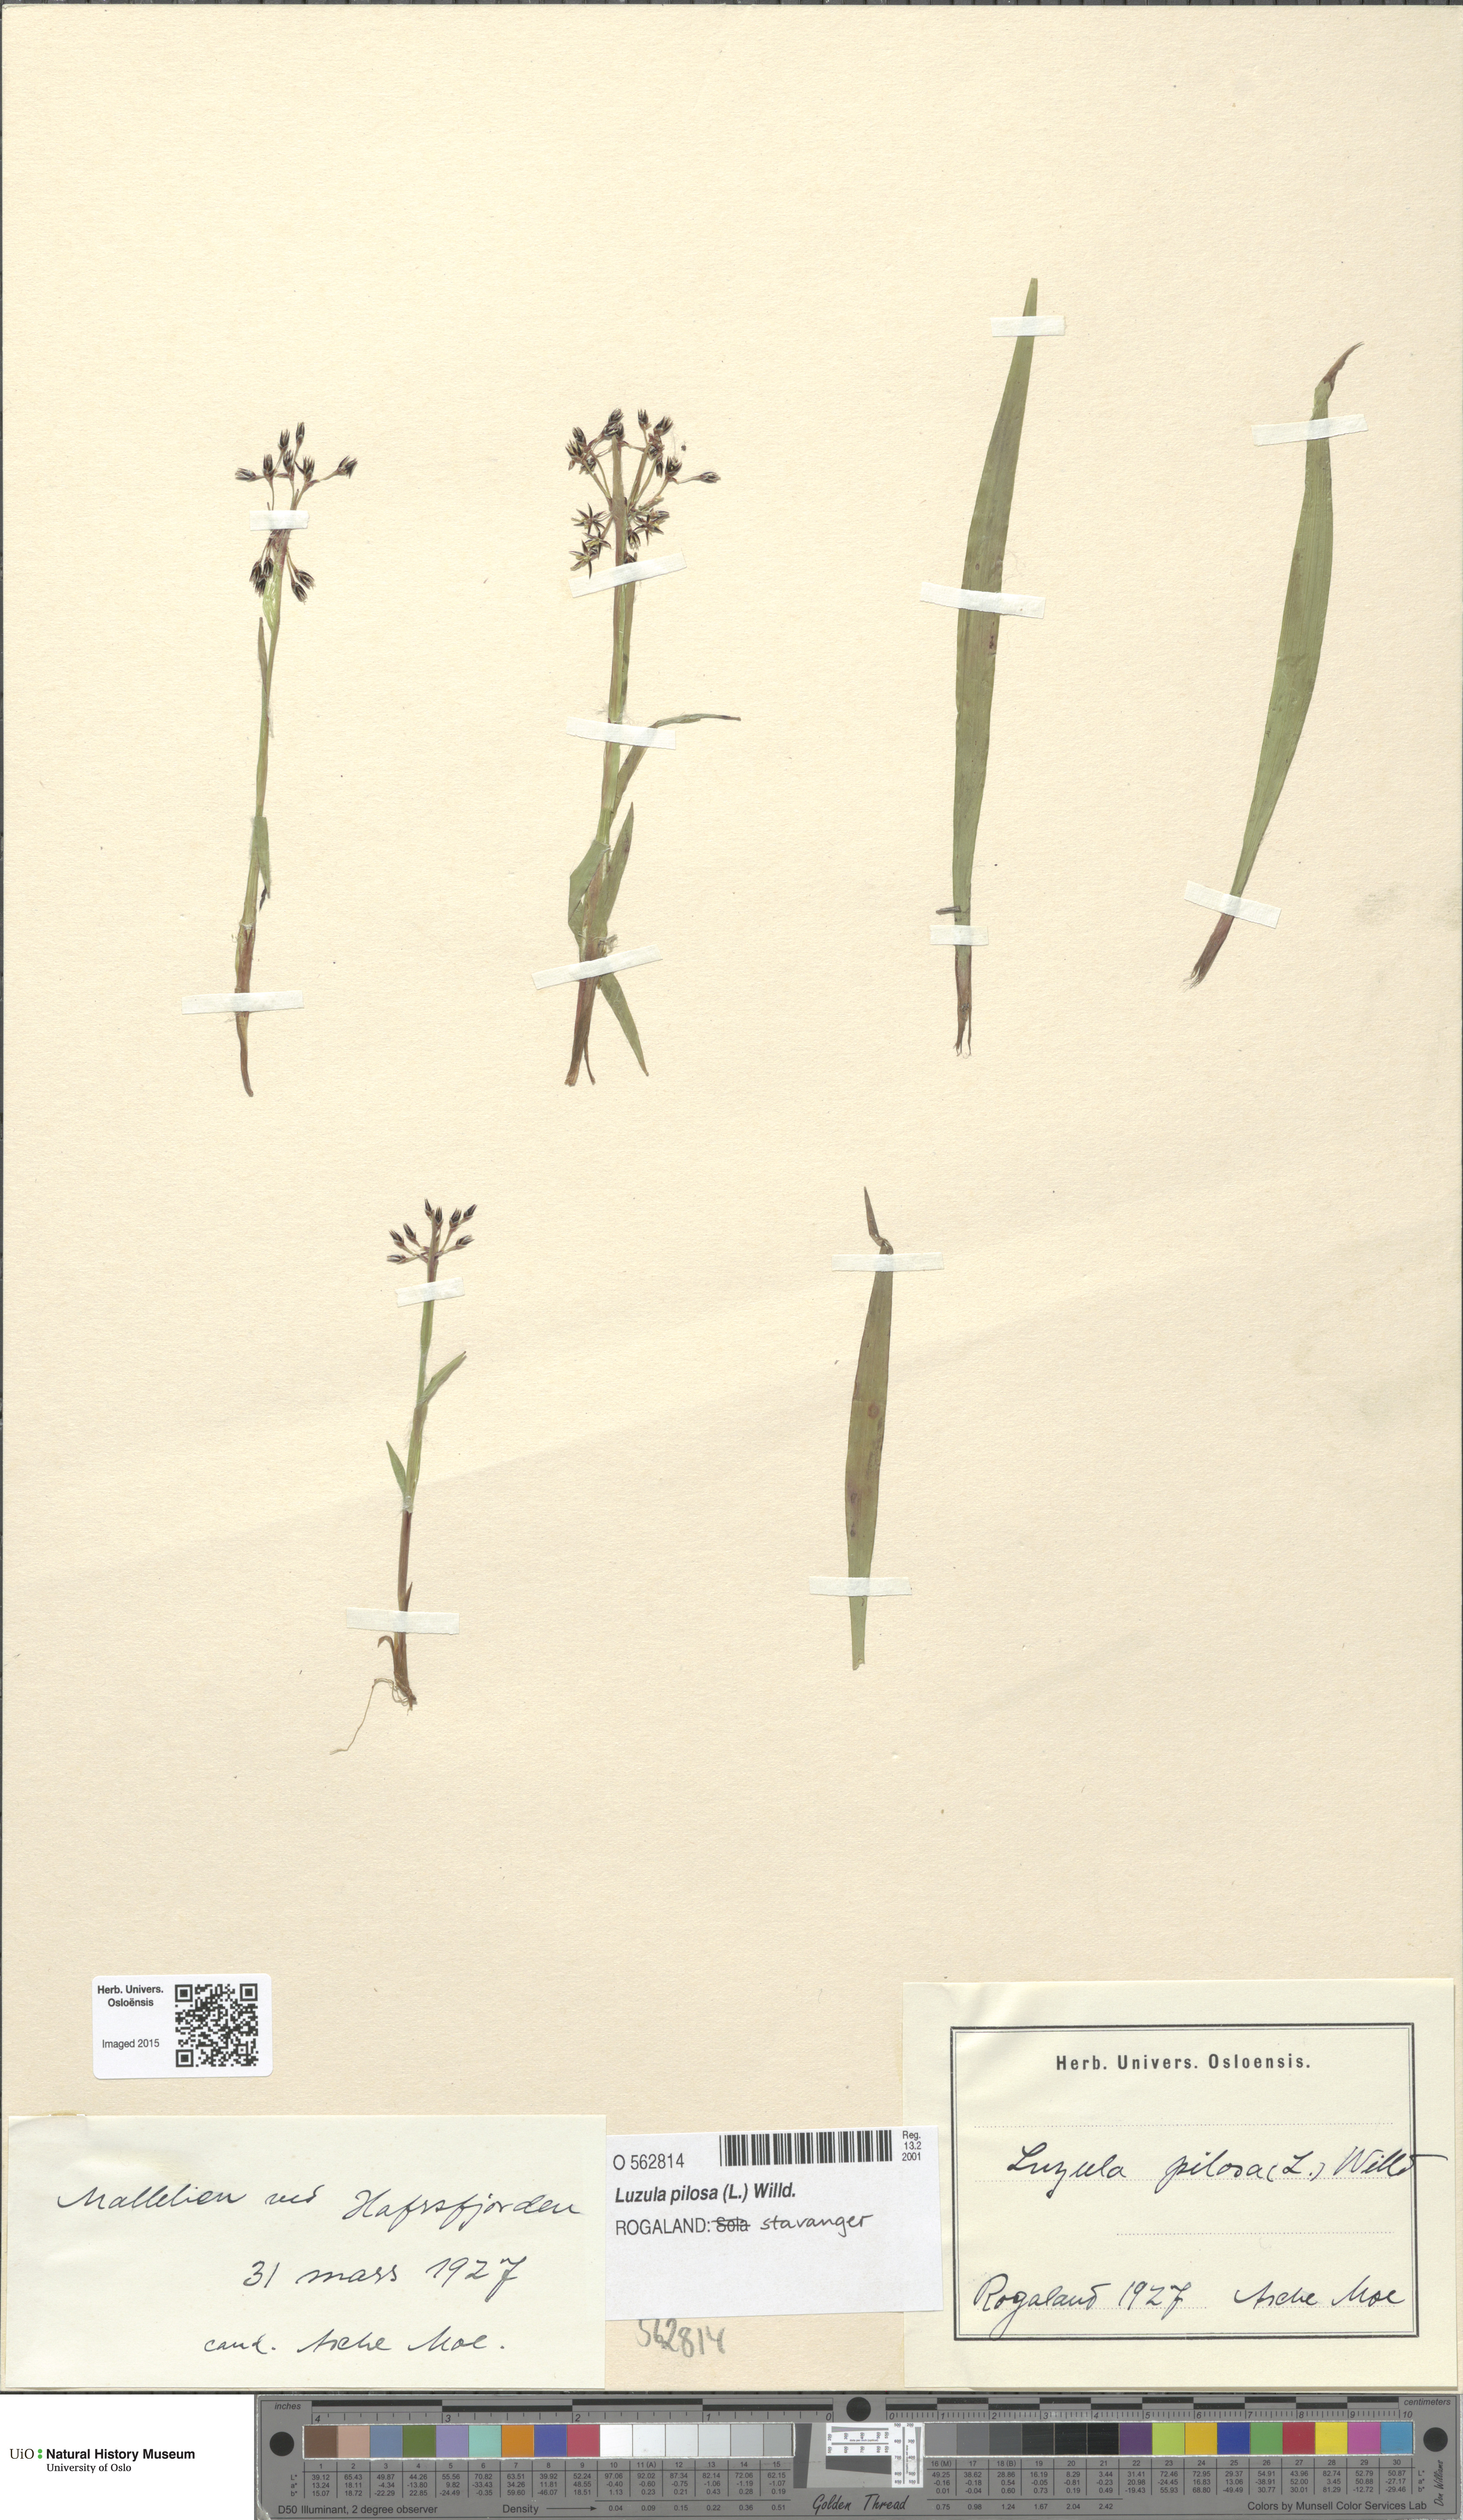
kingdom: Plantae
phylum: Tracheophyta
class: Liliopsida
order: Poales
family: Juncaceae
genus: Luzula
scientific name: Luzula pilosa
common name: Hairy wood-rush
